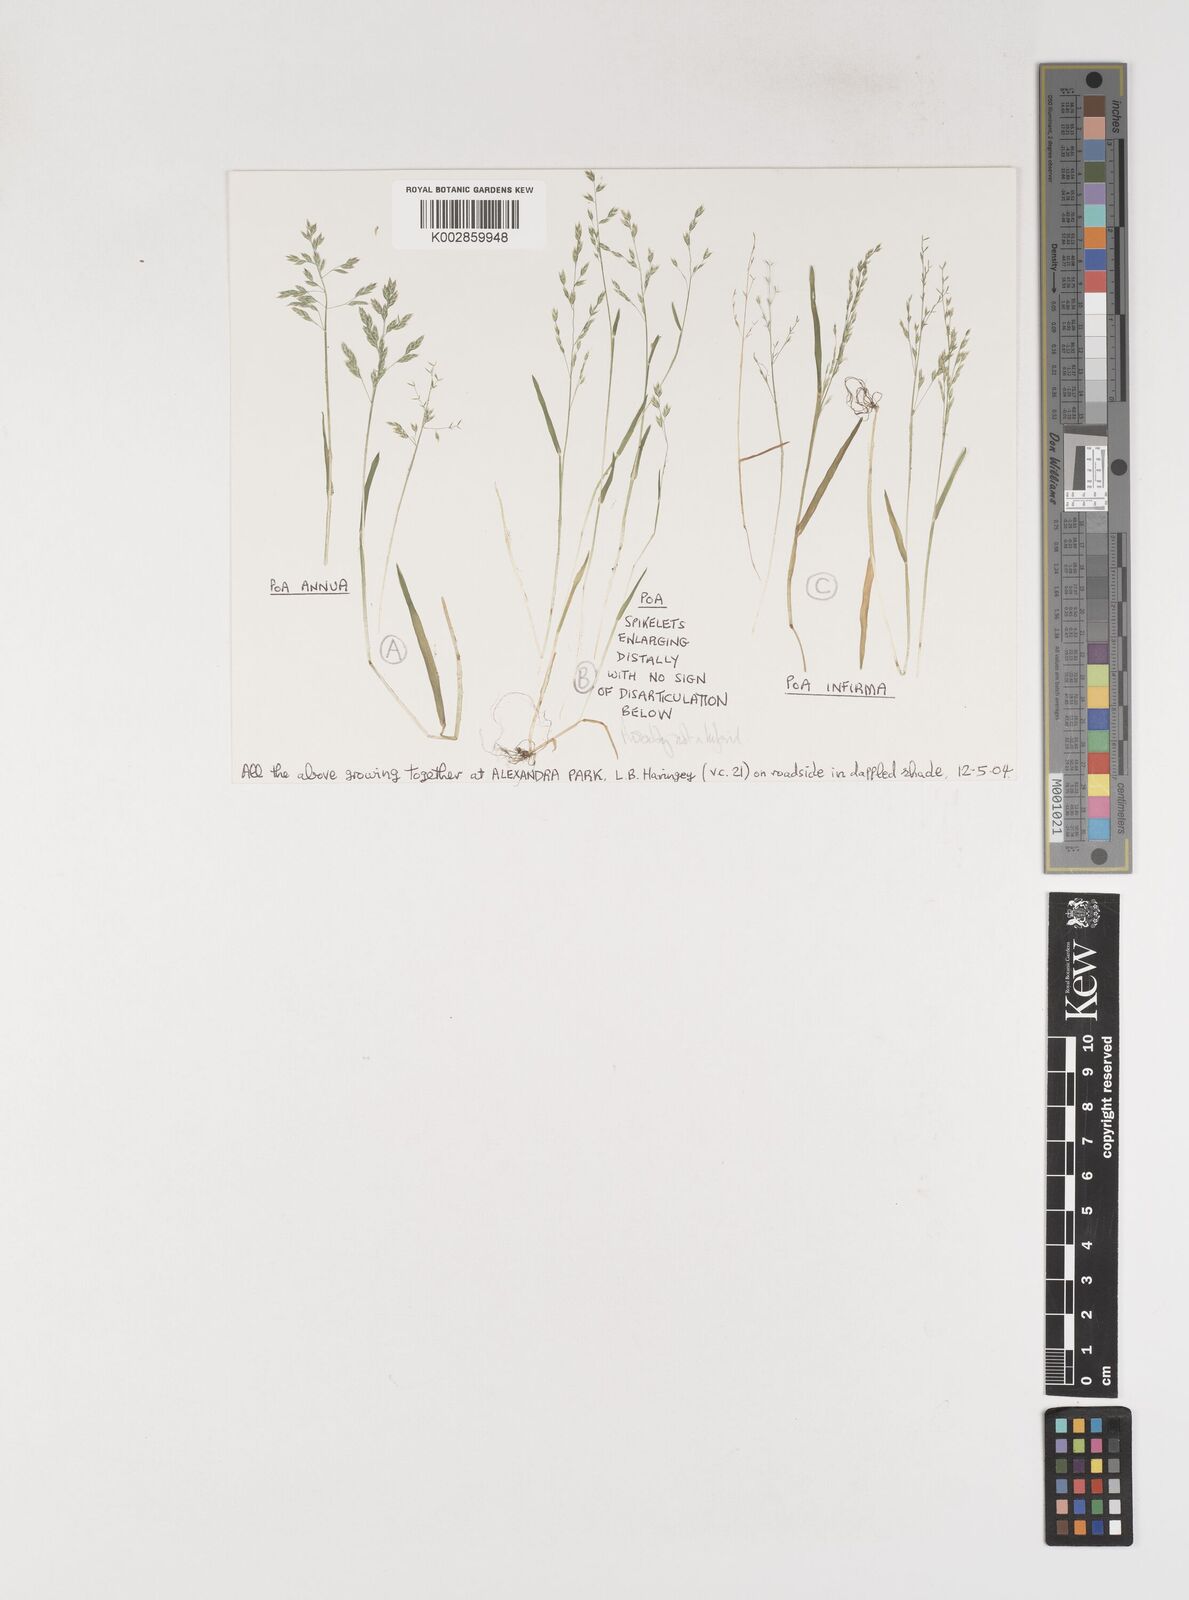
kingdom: Plantae
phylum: Tracheophyta
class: Liliopsida
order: Poales
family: Poaceae
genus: Poa
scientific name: Poa
